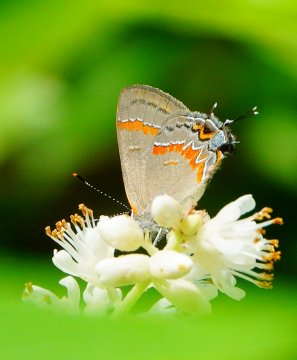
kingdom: Animalia
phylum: Arthropoda
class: Insecta
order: Lepidoptera
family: Lycaenidae
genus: Calycopis
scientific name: Calycopis cecrops
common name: Red-banded Hairstreak
